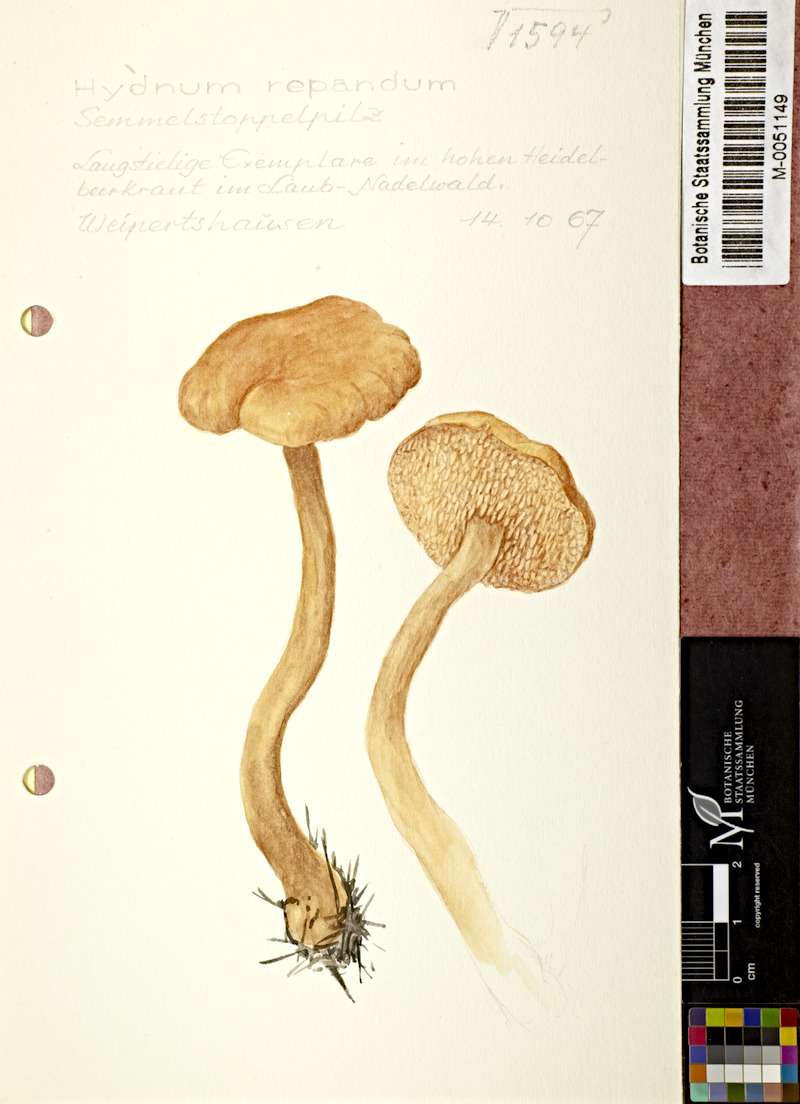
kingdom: Fungi
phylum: Basidiomycota
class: Agaricomycetes
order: Cantharellales
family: Hydnaceae
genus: Hydnum
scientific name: Hydnum repandum
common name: Wood hedgehog
